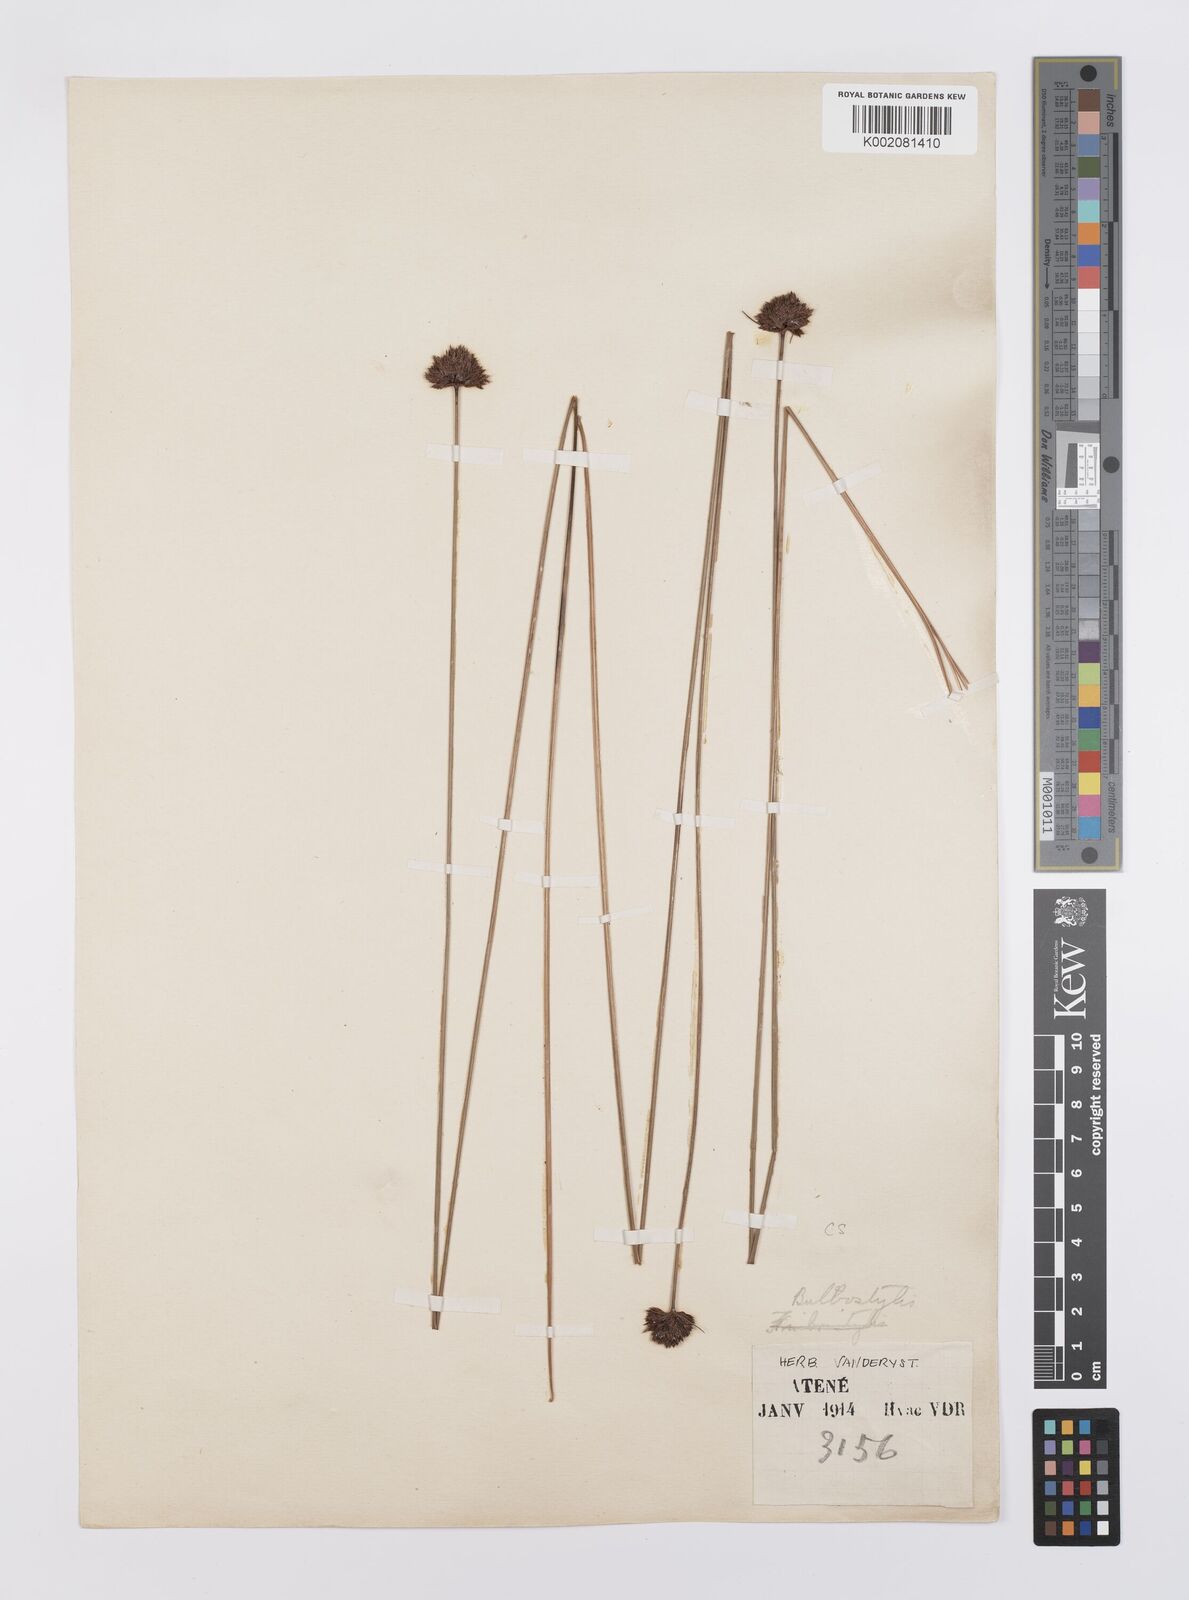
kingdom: Plantae
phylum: Tracheophyta
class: Liliopsida
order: Poales
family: Cyperaceae
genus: Bulbostylis
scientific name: Bulbostylis filamentosa
